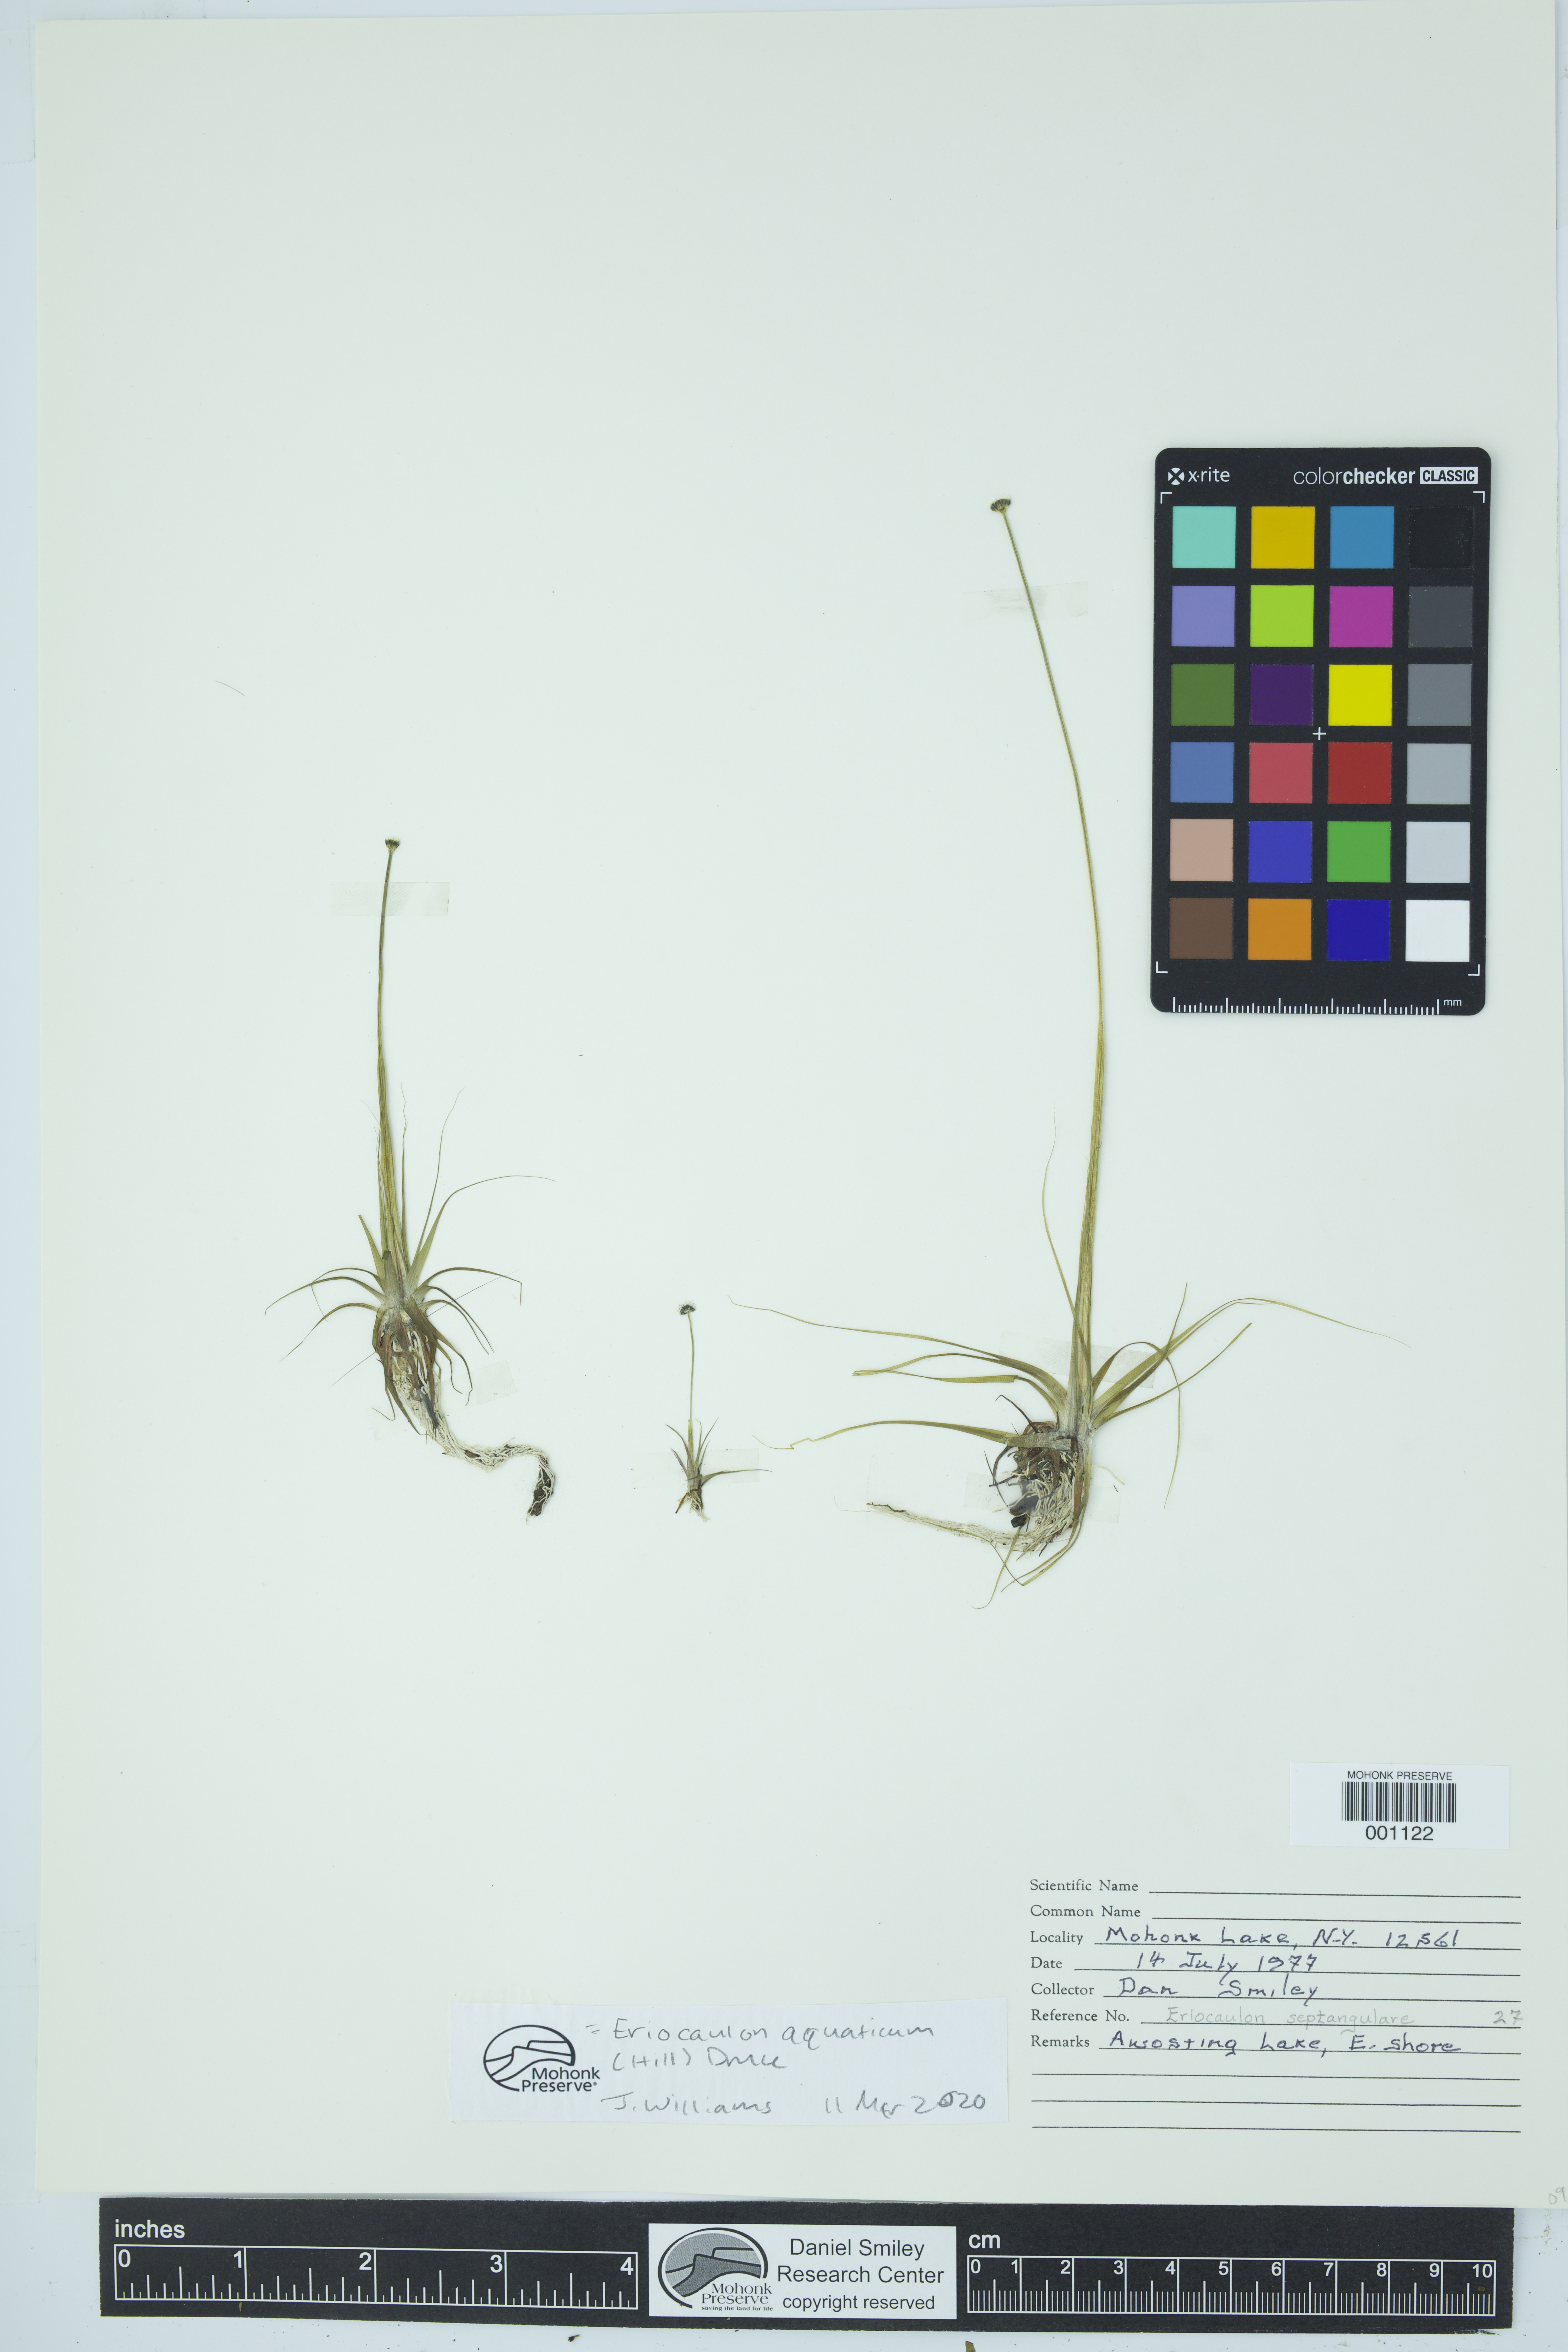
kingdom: Plantae
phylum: Tracheophyta
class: Liliopsida
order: Poales
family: Eriocaulaceae
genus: Eriocaulon
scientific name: Eriocaulon aquaticum
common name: Pipewort
